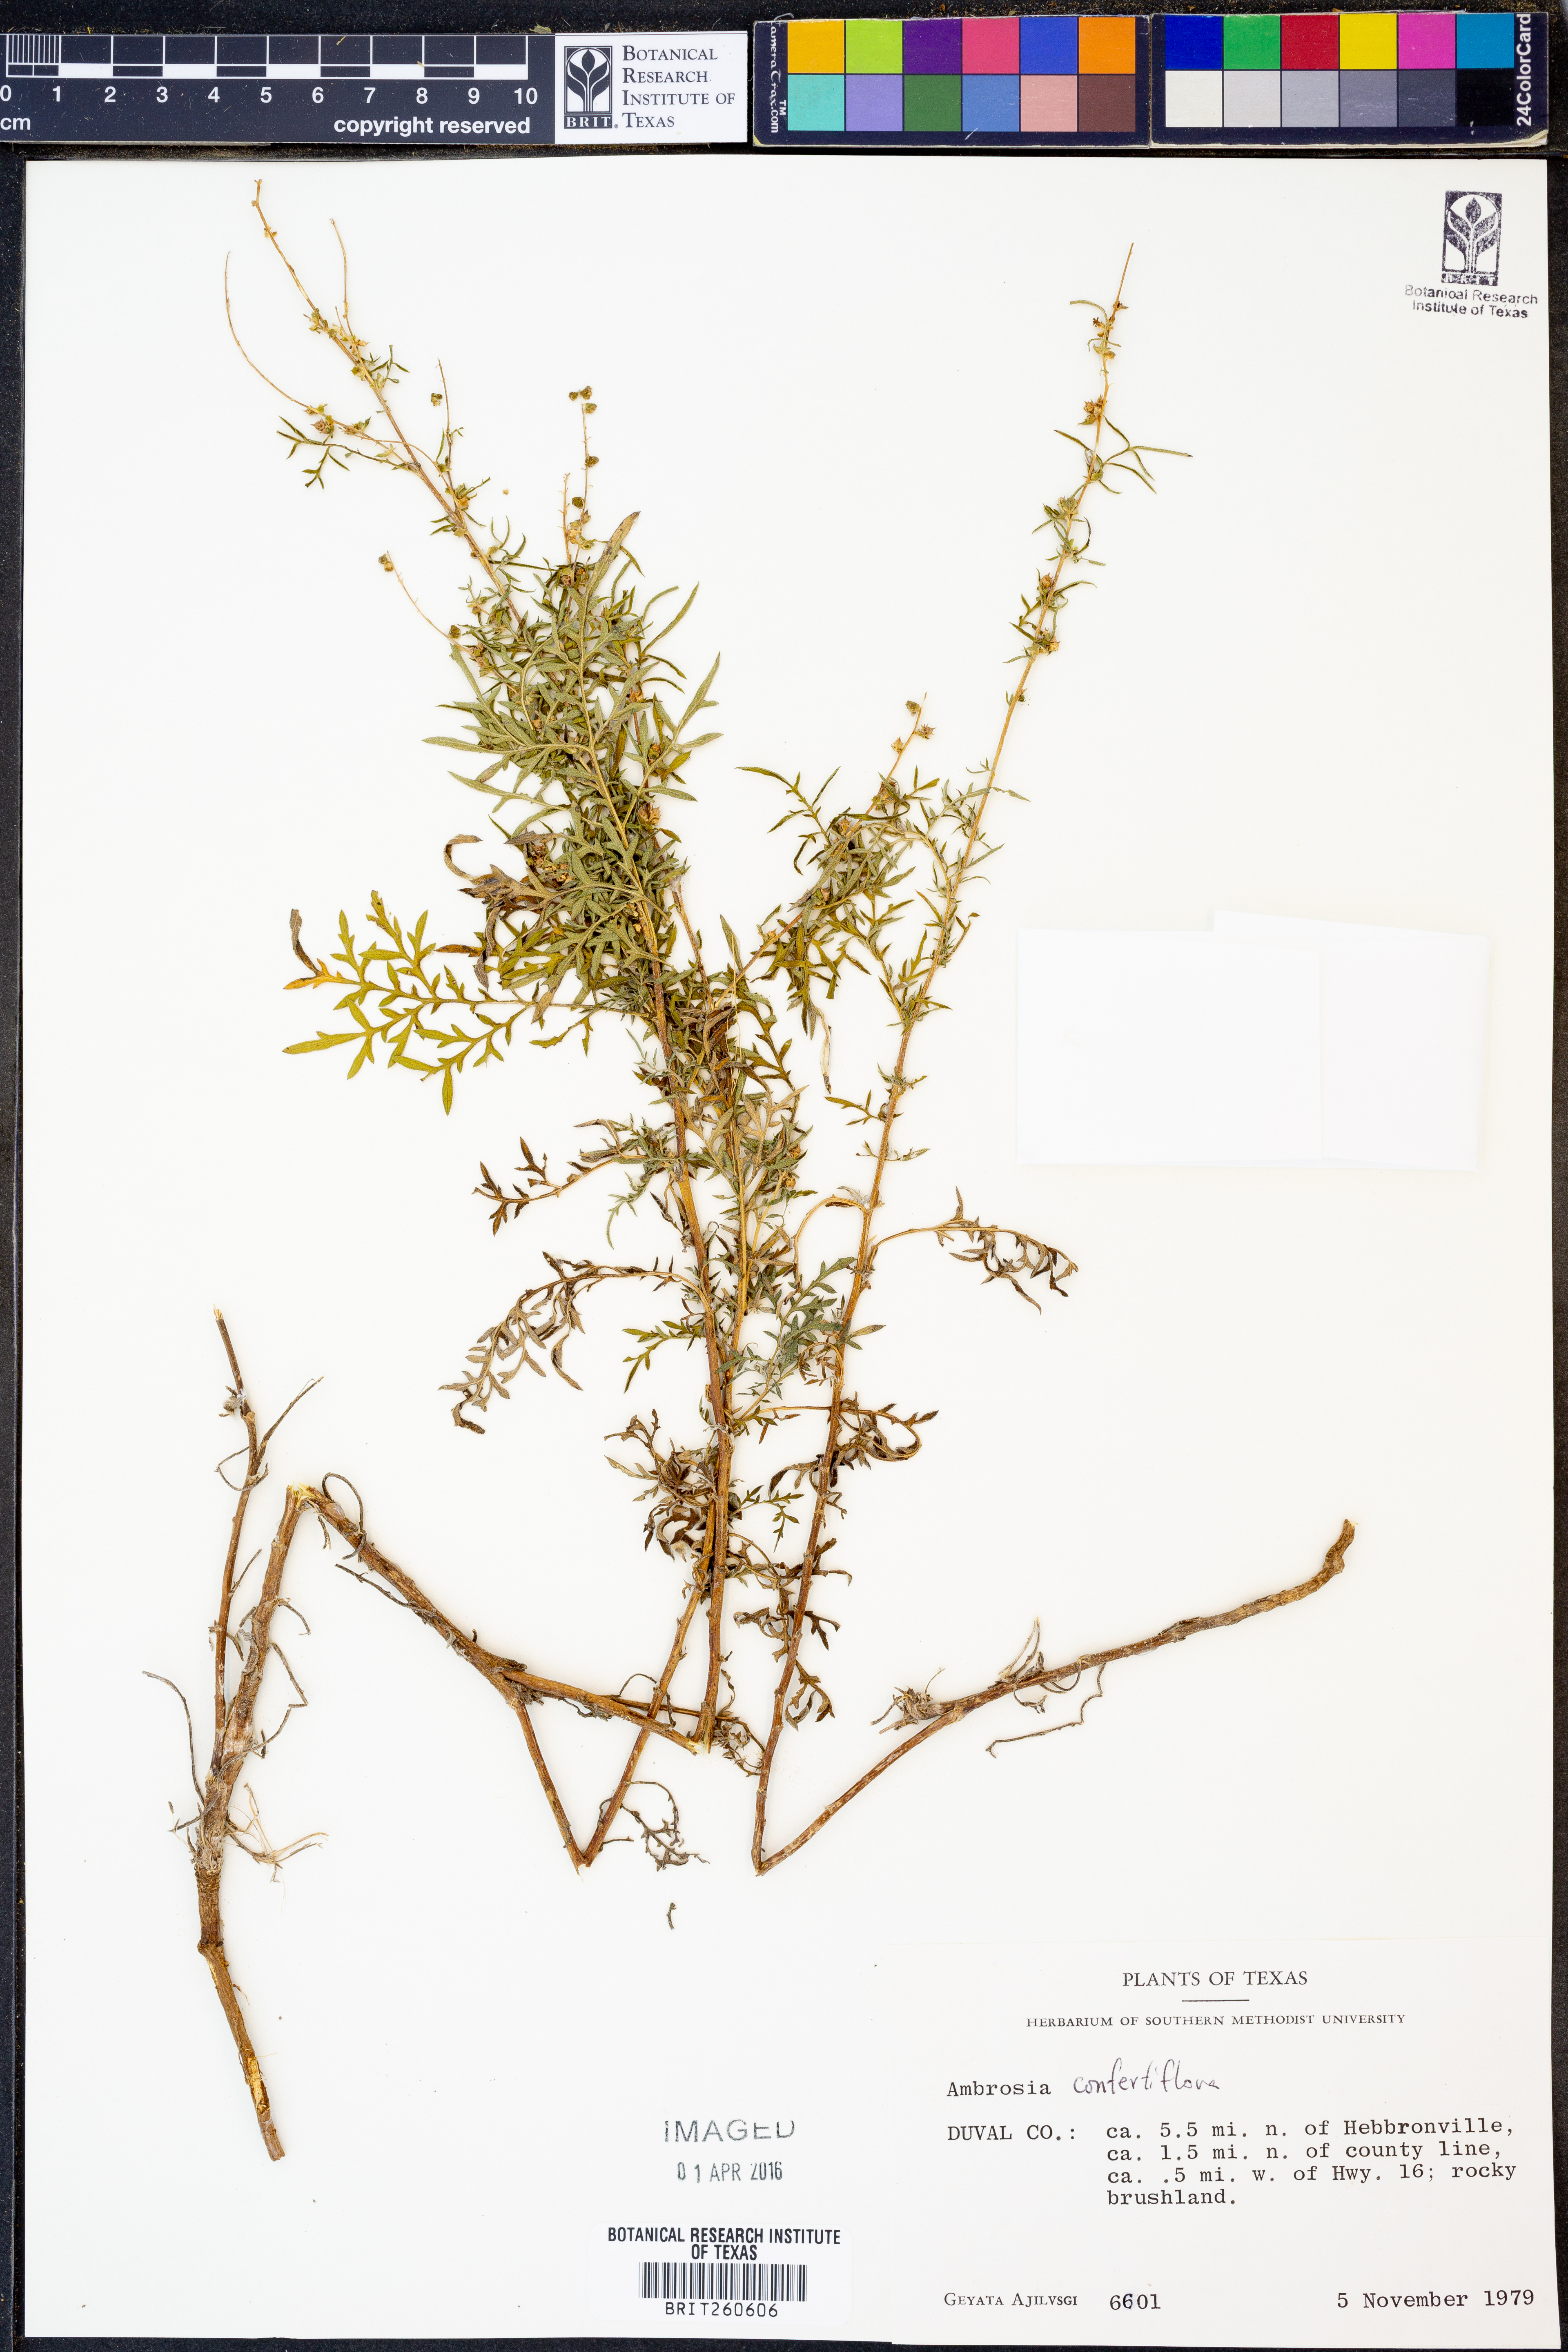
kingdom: Plantae
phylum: Tracheophyta
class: Magnoliopsida
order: Asterales
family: Asteraceae
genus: Ambrosia
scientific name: Ambrosia confertiflora
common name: Bur ragweed
